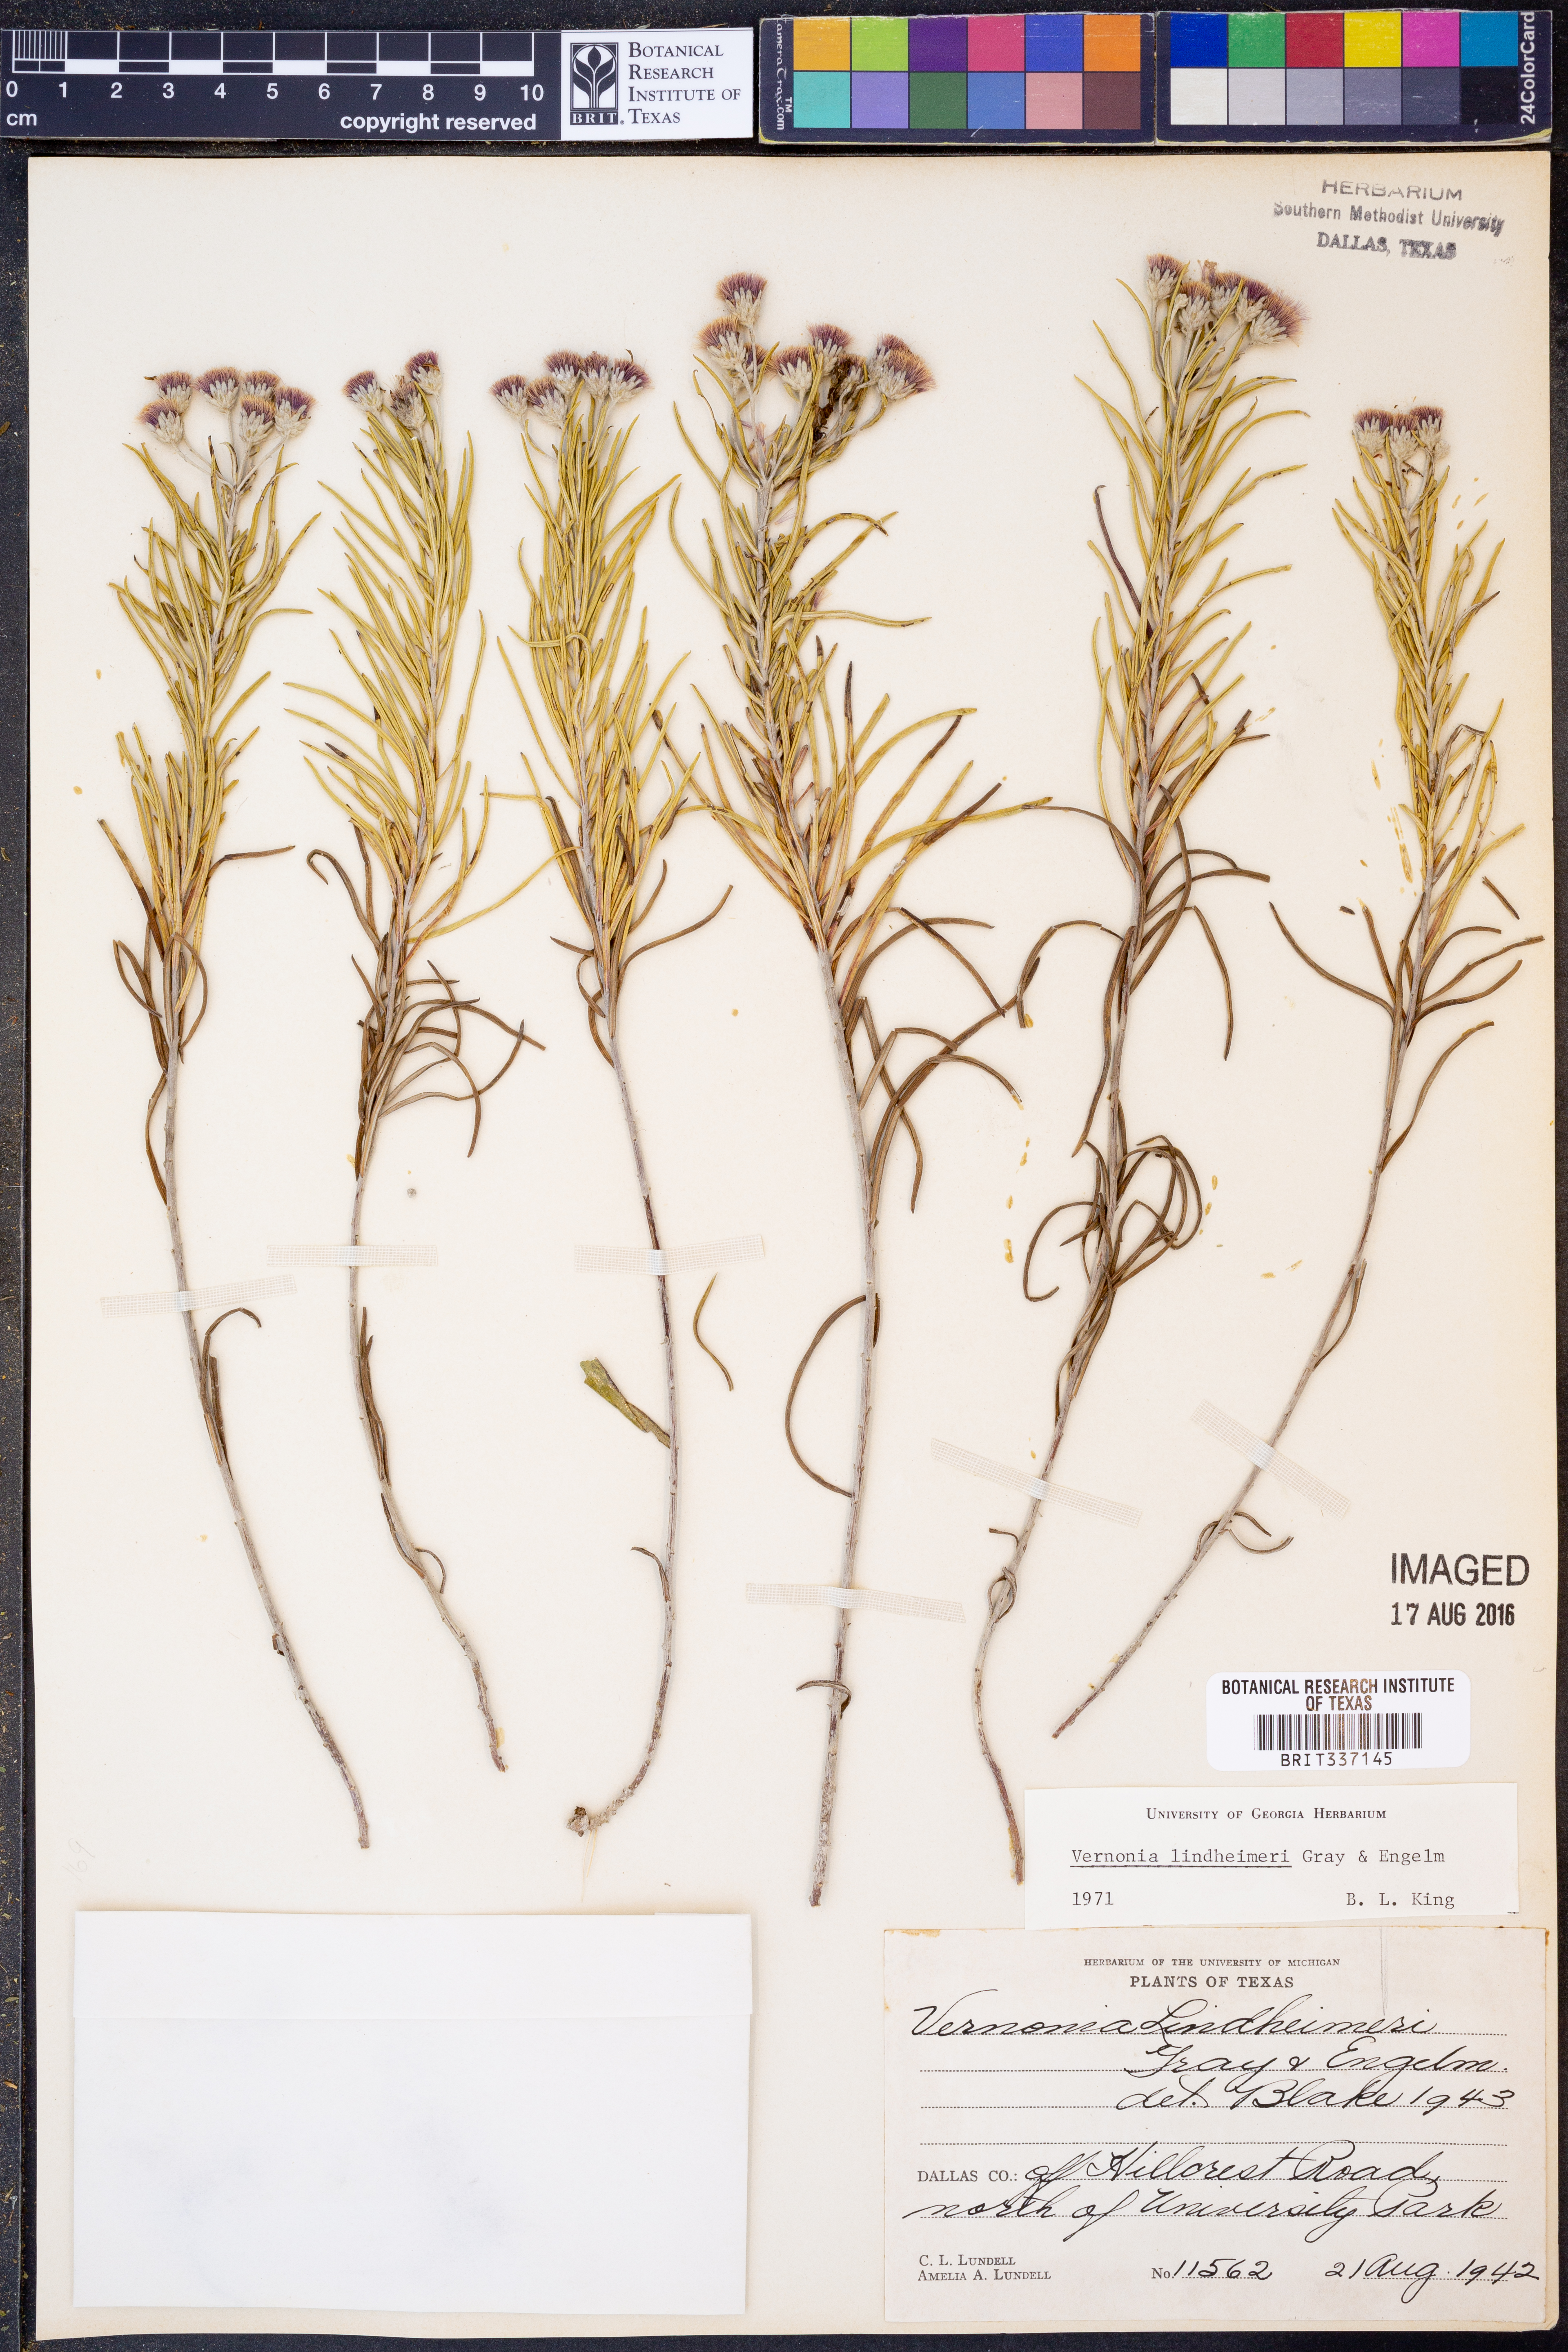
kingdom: Plantae
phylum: Tracheophyta
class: Magnoliopsida
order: Asterales
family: Asteraceae
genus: Vernonia
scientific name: Vernonia lindheimeri
